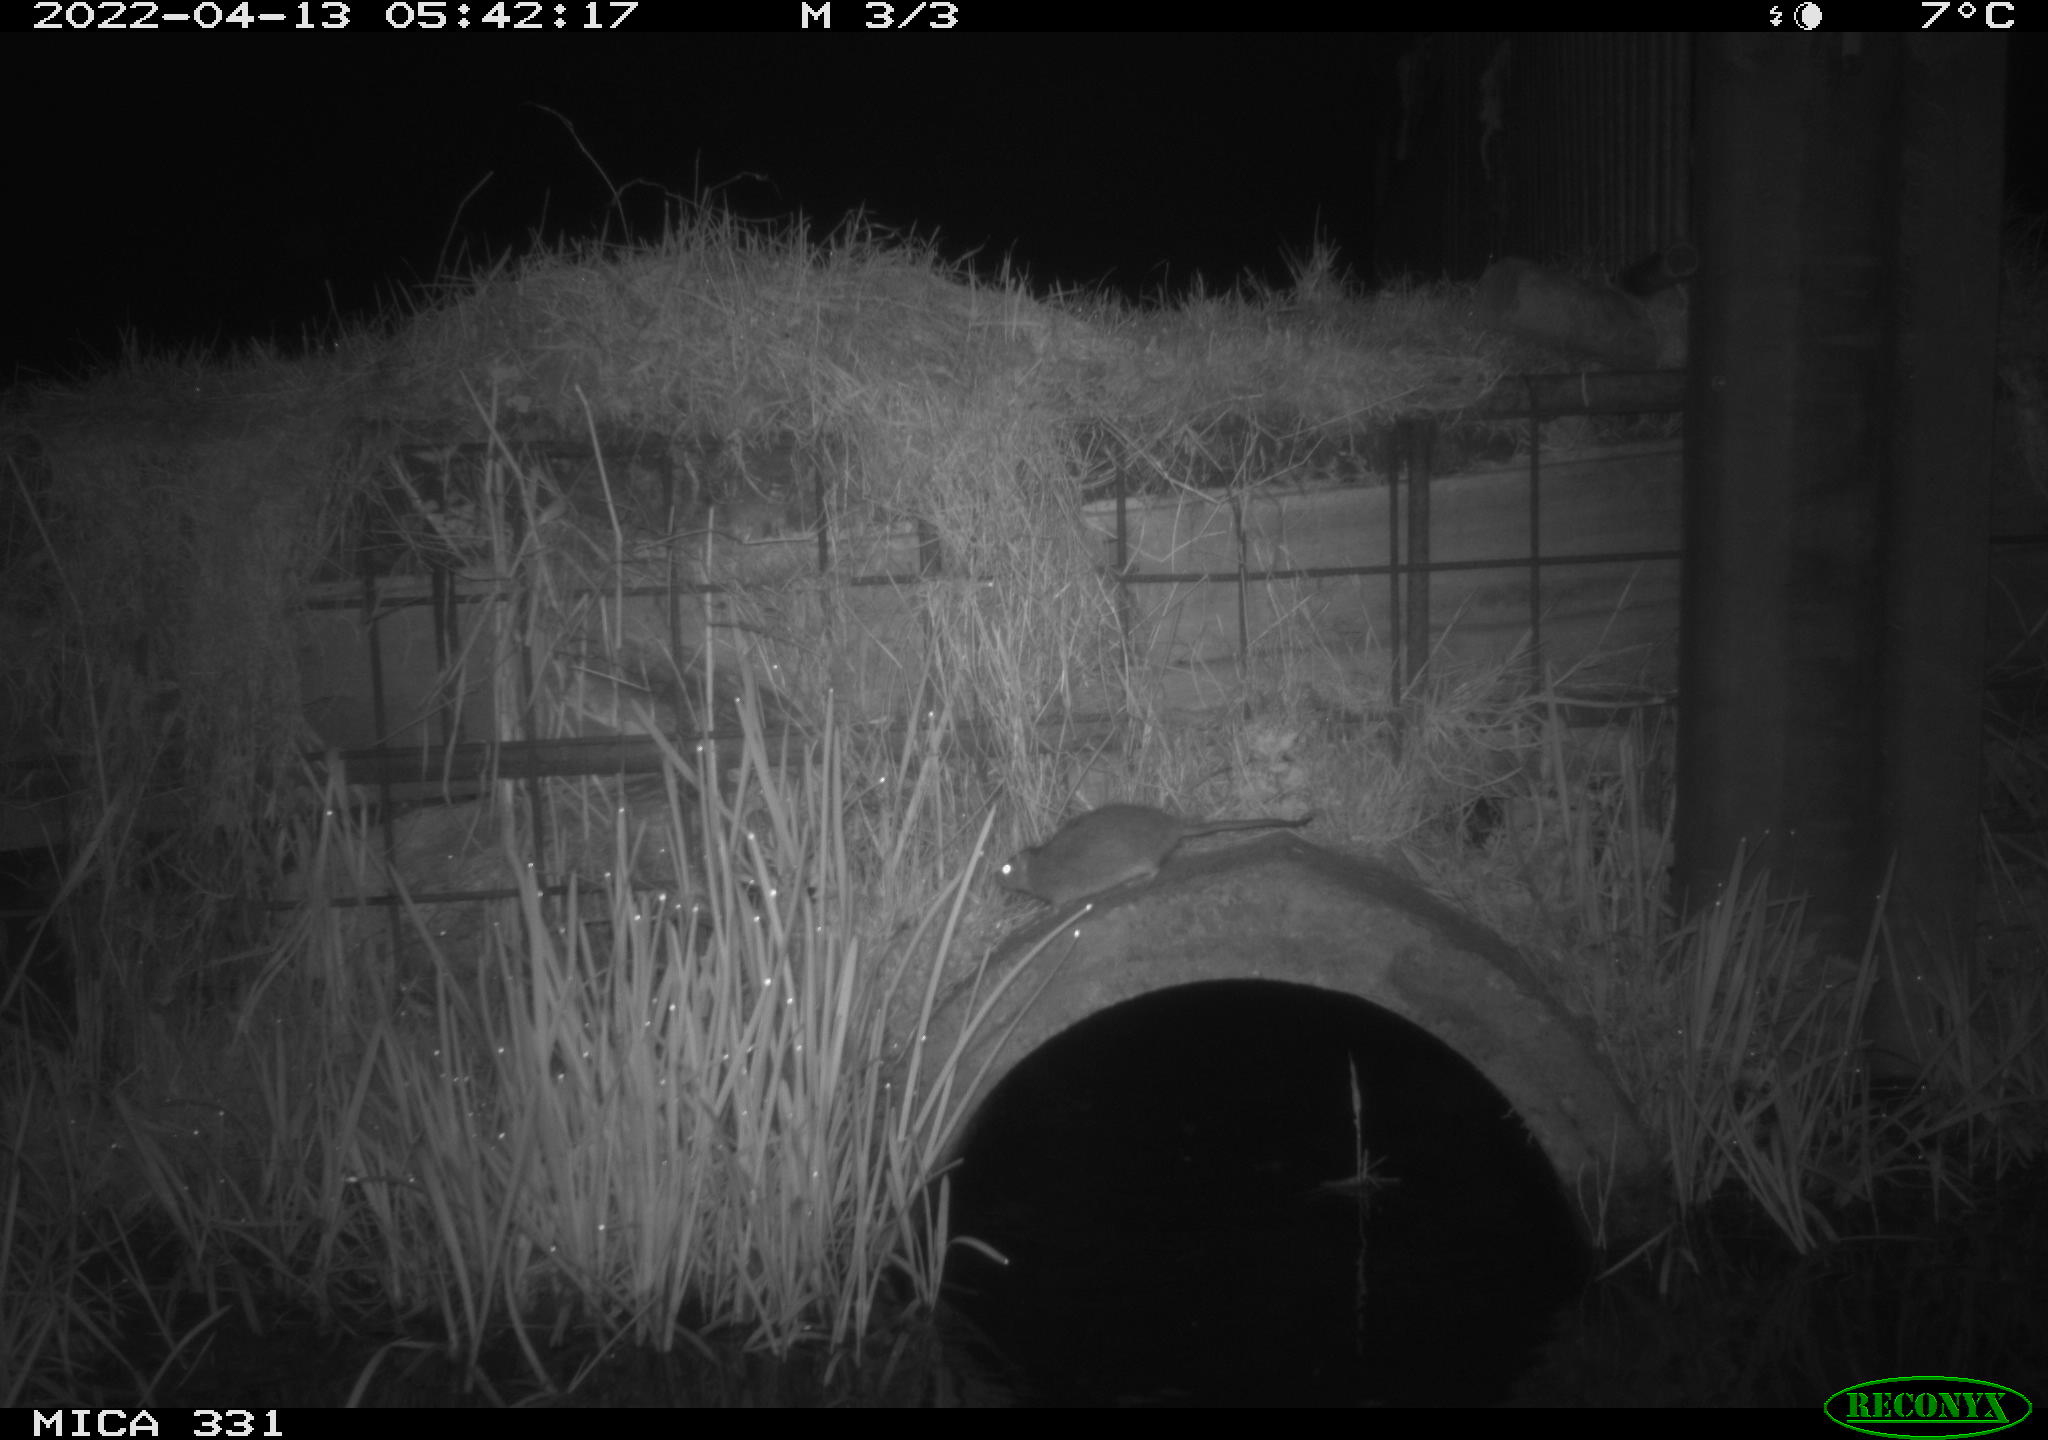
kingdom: Animalia
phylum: Chordata
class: Mammalia
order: Rodentia
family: Muridae
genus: Rattus
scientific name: Rattus norvegicus
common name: Brown rat
